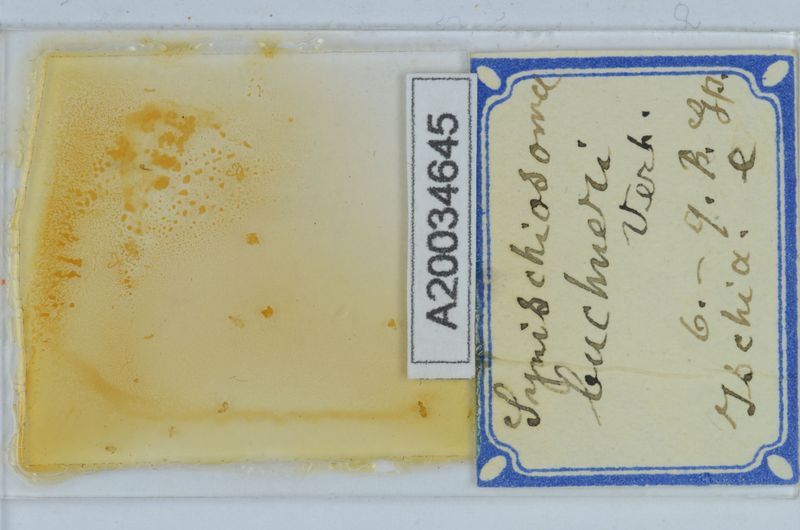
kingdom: Animalia
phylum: Arthropoda
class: Diplopoda
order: Chordeumatida
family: Craspedosomatidae
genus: Synischiosoma
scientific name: Synischiosoma buchneri
